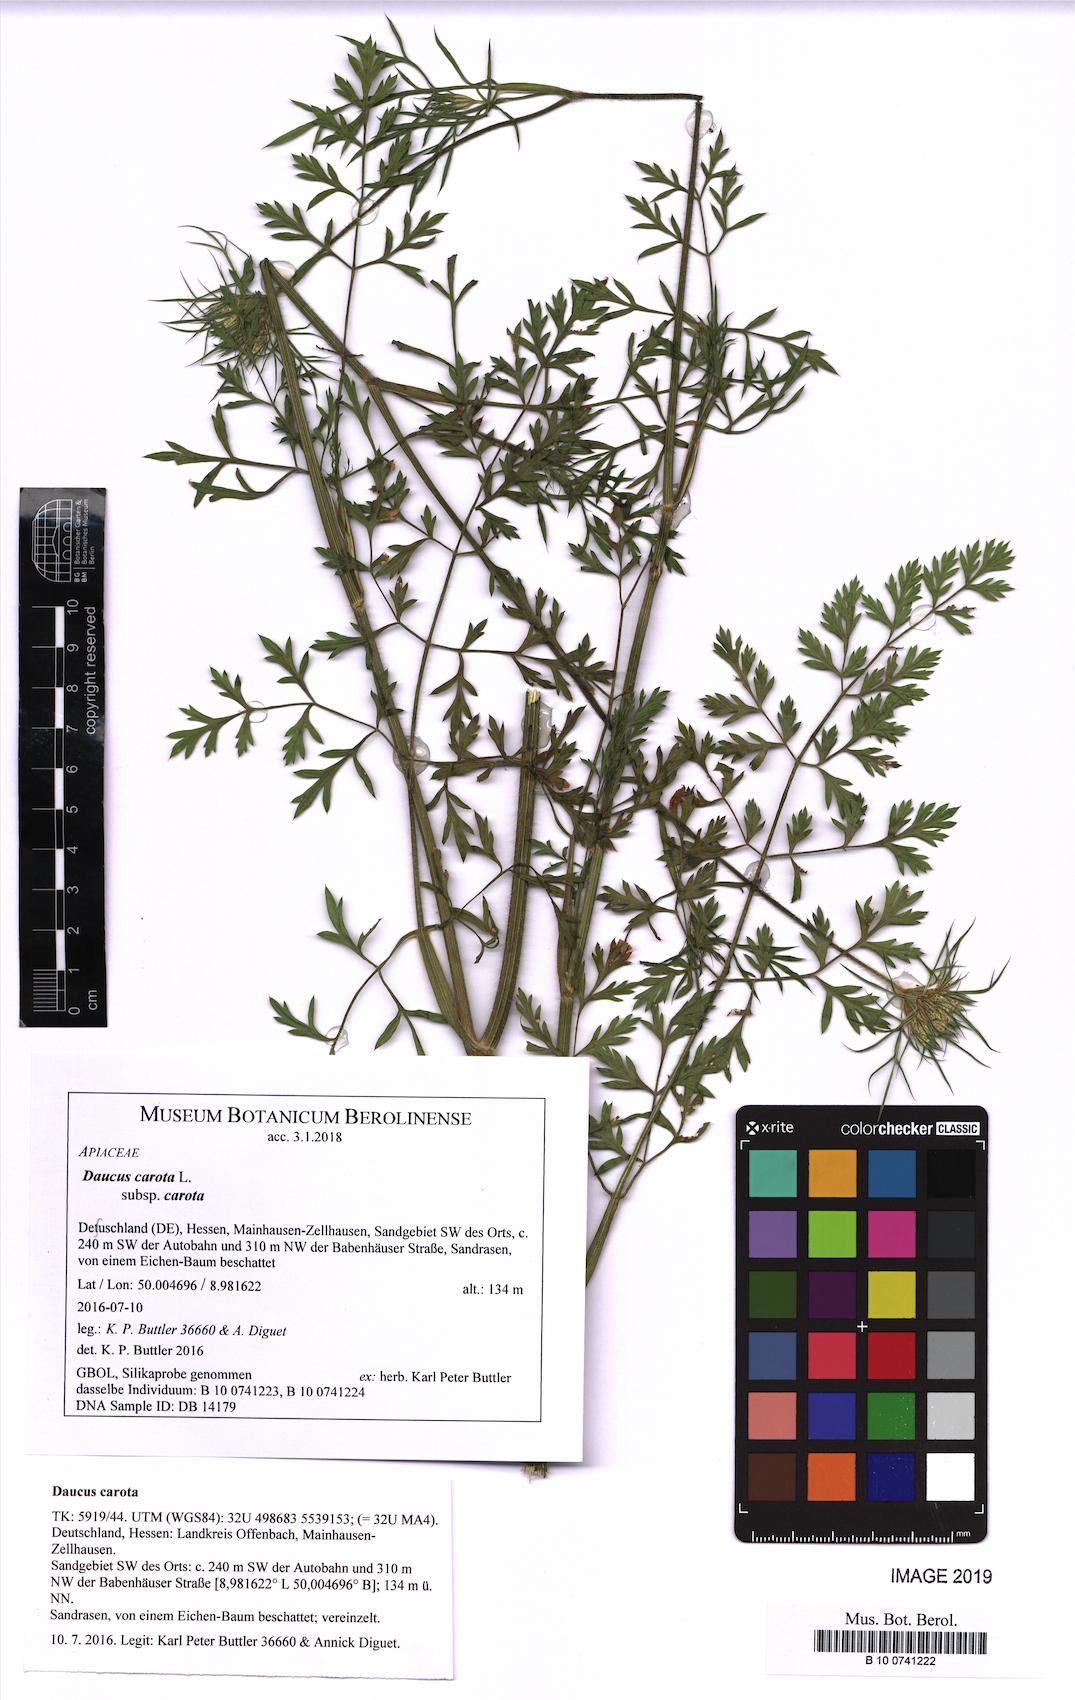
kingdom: Plantae
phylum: Tracheophyta
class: Magnoliopsida
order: Apiales
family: Apiaceae
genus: Daucus
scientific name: Daucus carota
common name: Wild carrot
